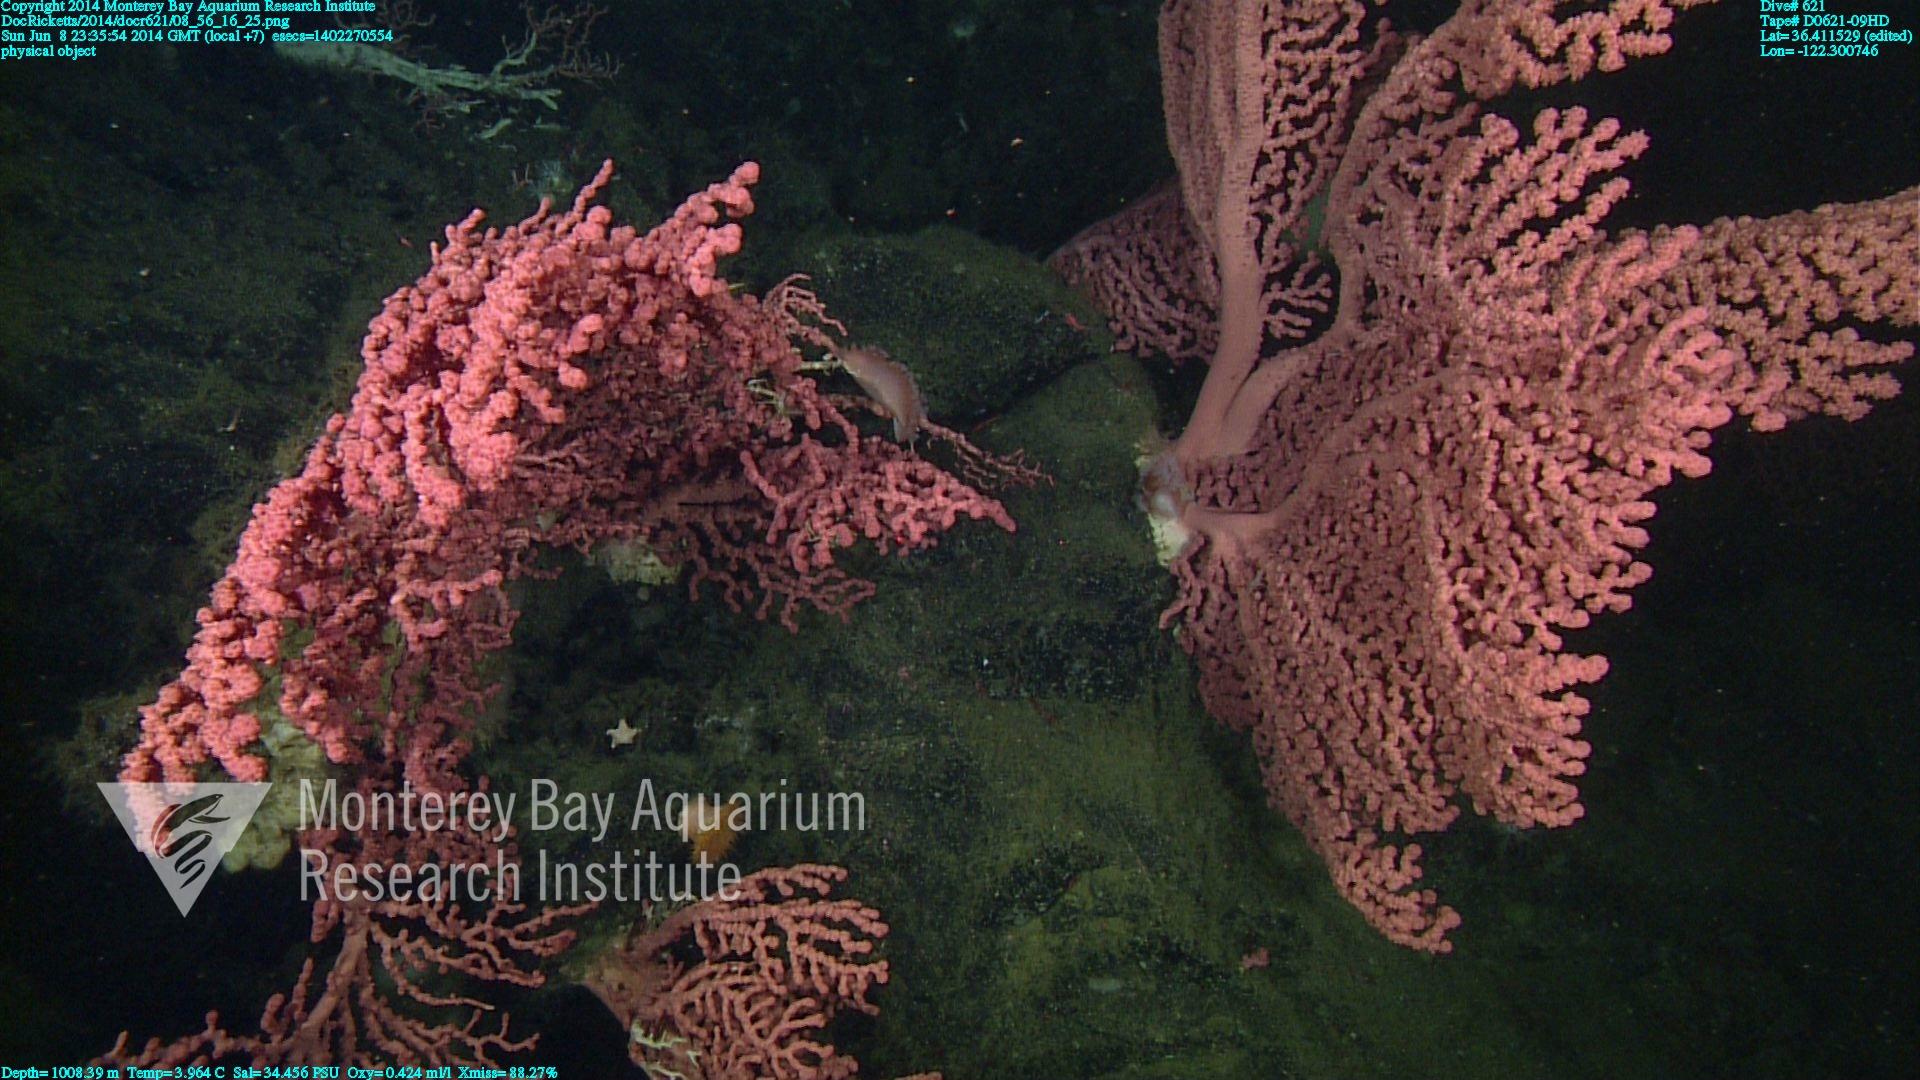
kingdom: Animalia
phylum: Cnidaria
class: Anthozoa
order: Scleralcyonacea
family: Coralliidae
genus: Paragorgia
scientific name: Paragorgia arborea
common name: Bubble gum coral
